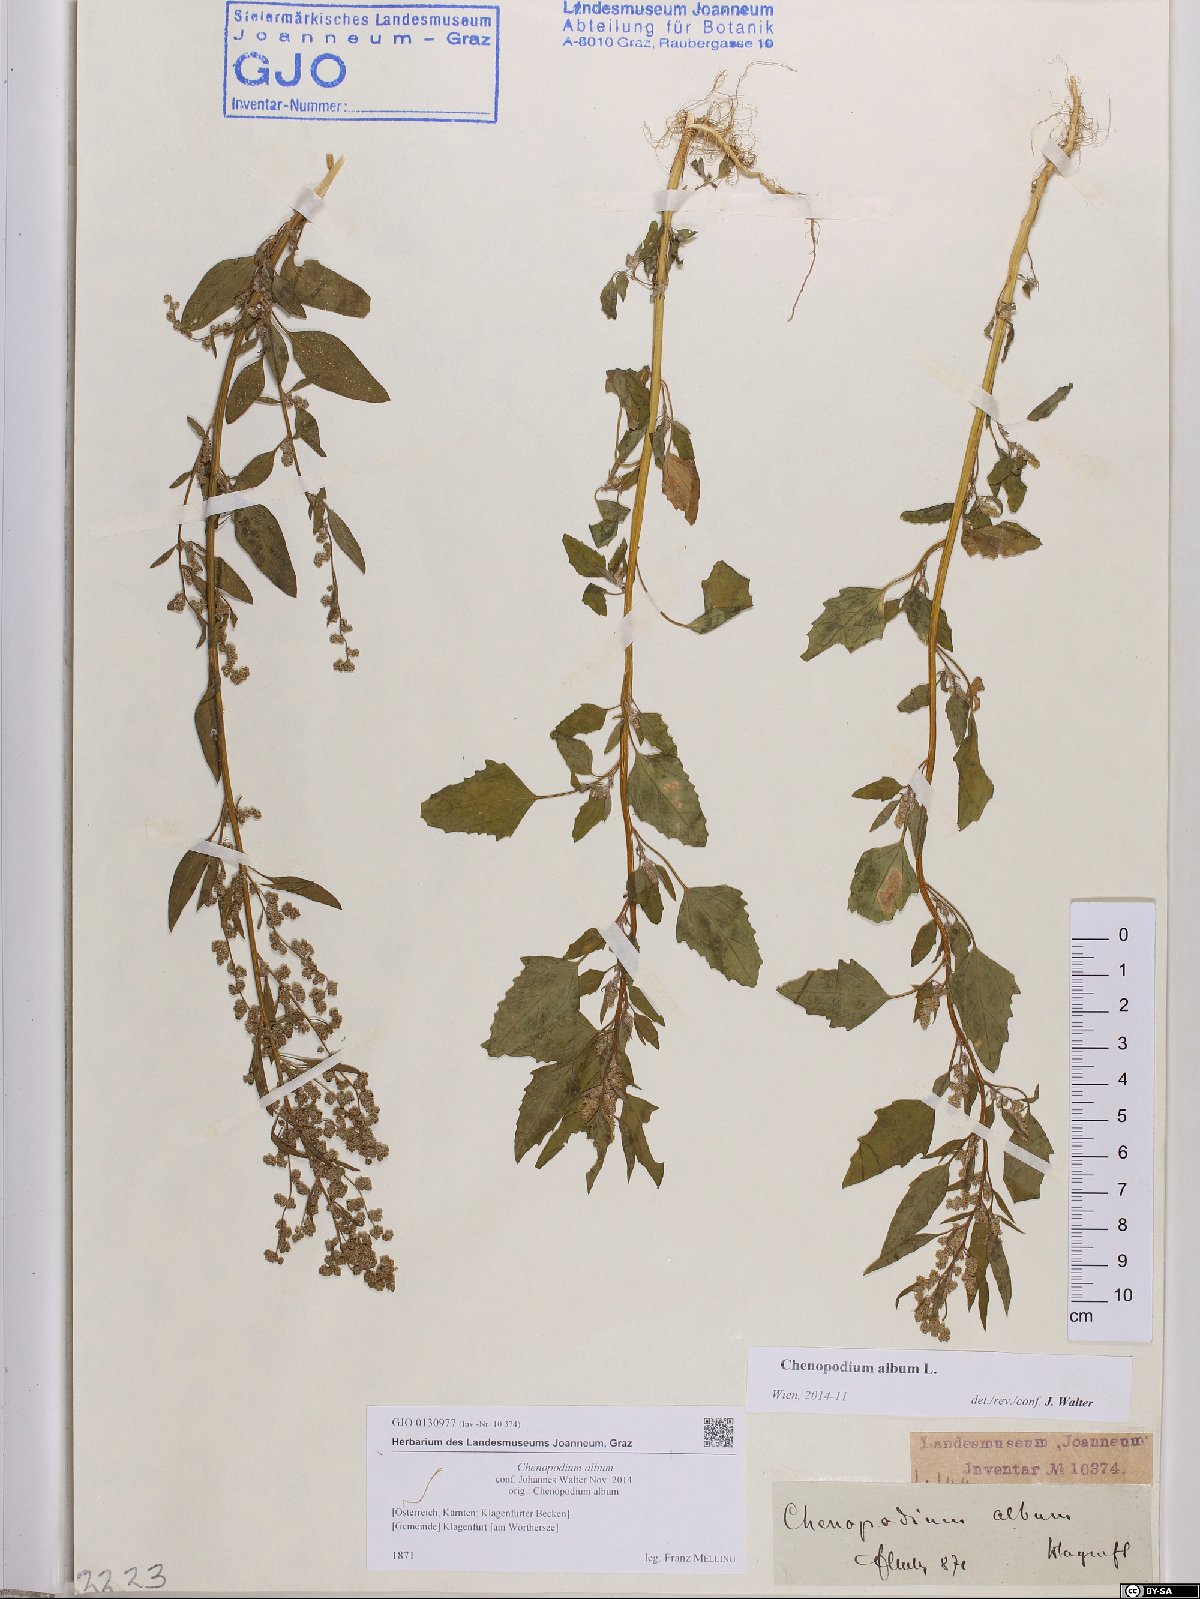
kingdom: Plantae
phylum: Tracheophyta
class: Magnoliopsida
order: Caryophyllales
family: Amaranthaceae
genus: Chenopodium
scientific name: Chenopodium album
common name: Fat-hen
